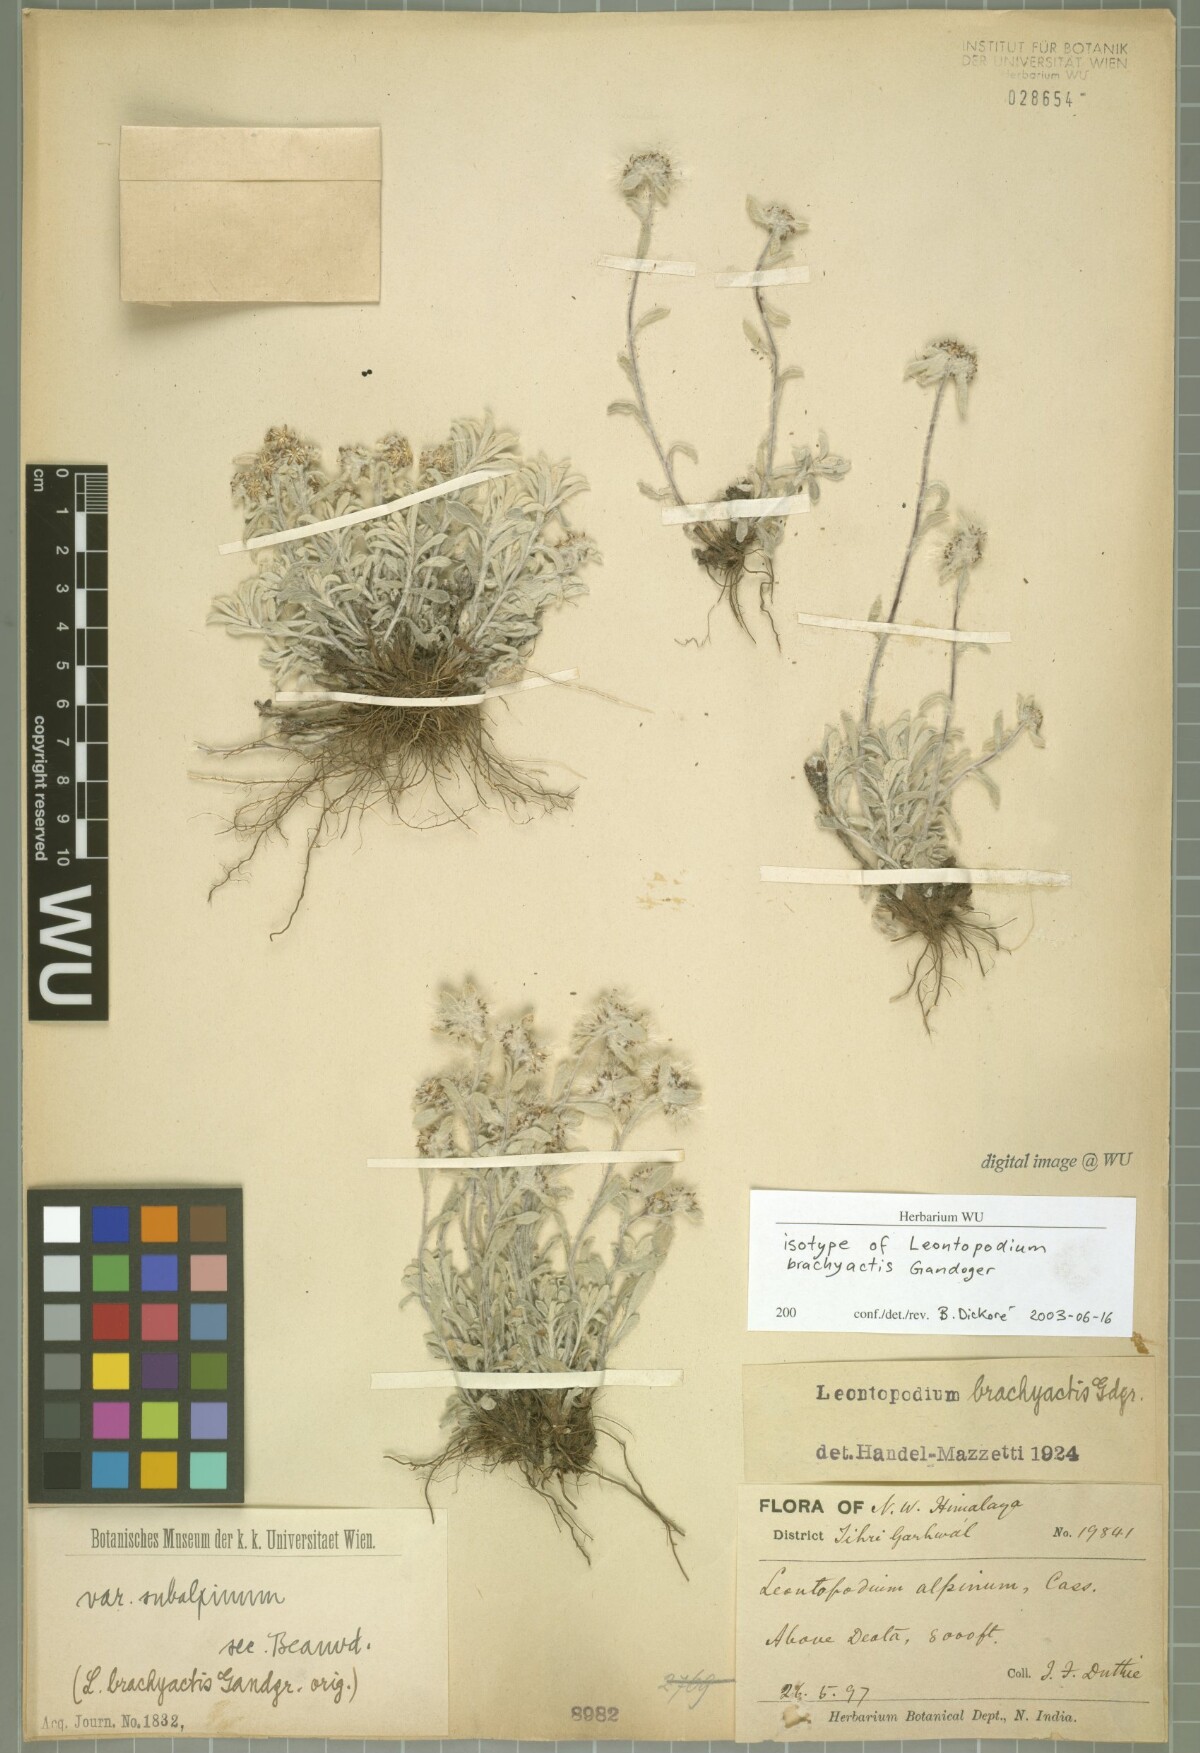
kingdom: Plantae
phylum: Tracheophyta
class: Magnoliopsida
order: Asterales
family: Asteraceae
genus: Leontopodium
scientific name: Leontopodium brachyactis
